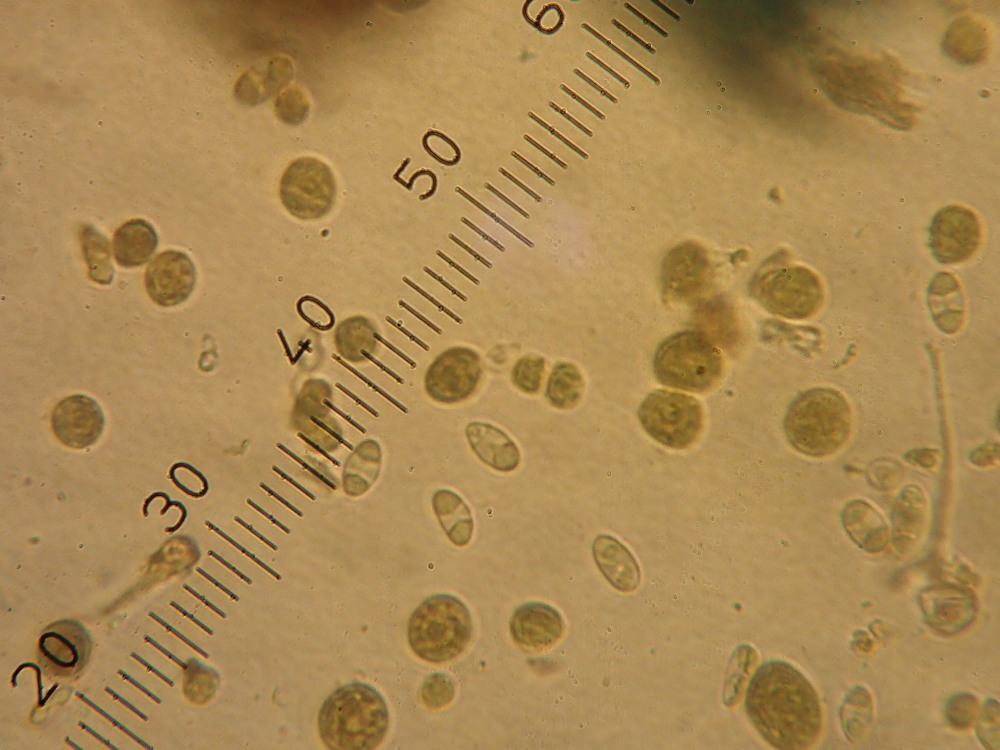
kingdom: Fungi
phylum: Ascomycota
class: Lecanoromycetes
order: Teloschistales
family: Teloschistaceae
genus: Calogaya
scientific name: Calogaya saxicola
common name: mur-orangelav
